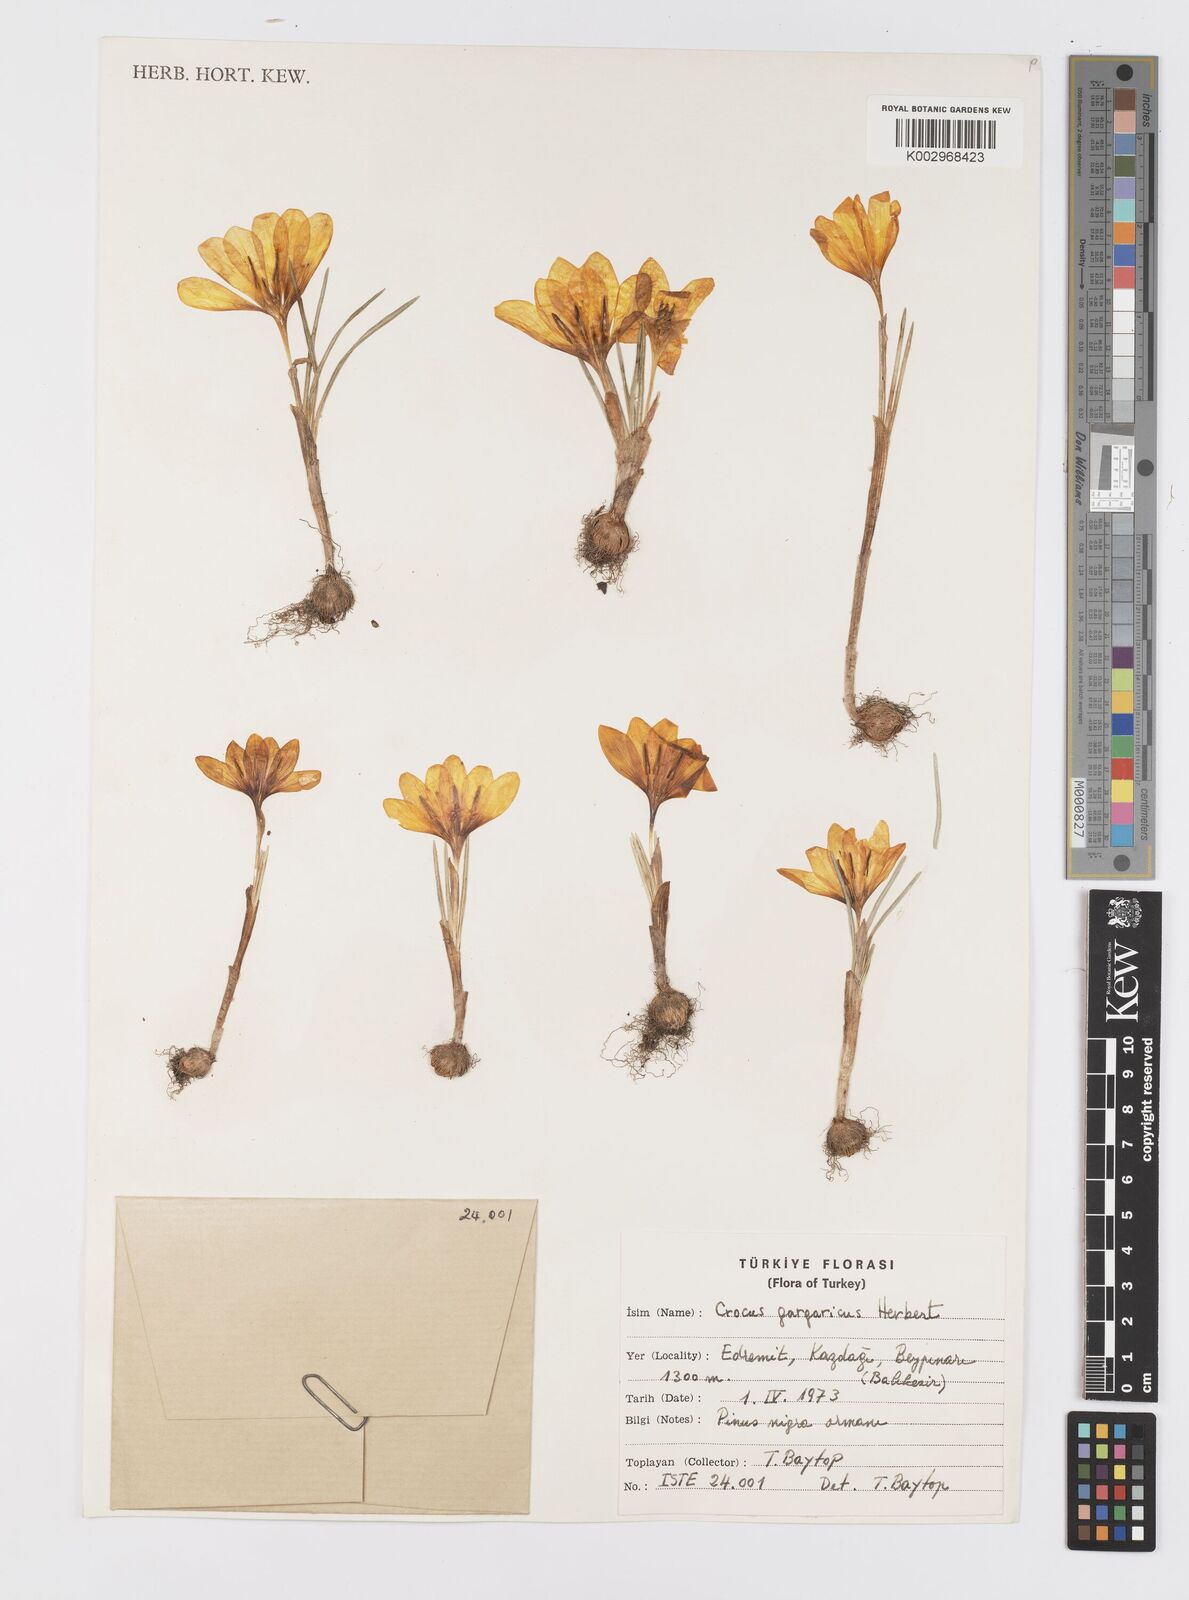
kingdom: Plantae
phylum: Tracheophyta
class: Liliopsida
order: Asparagales
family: Iridaceae
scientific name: Iridaceae
